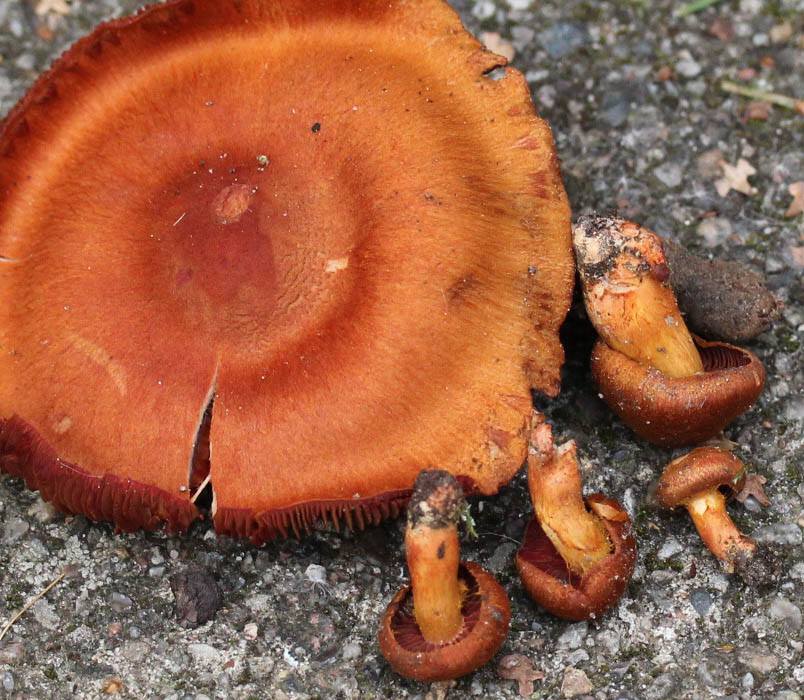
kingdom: Fungi
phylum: Basidiomycota
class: Agaricomycetes
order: Agaricales
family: Cortinariaceae
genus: Cortinarius
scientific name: Cortinarius purpureus
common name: brunrød slørhat
